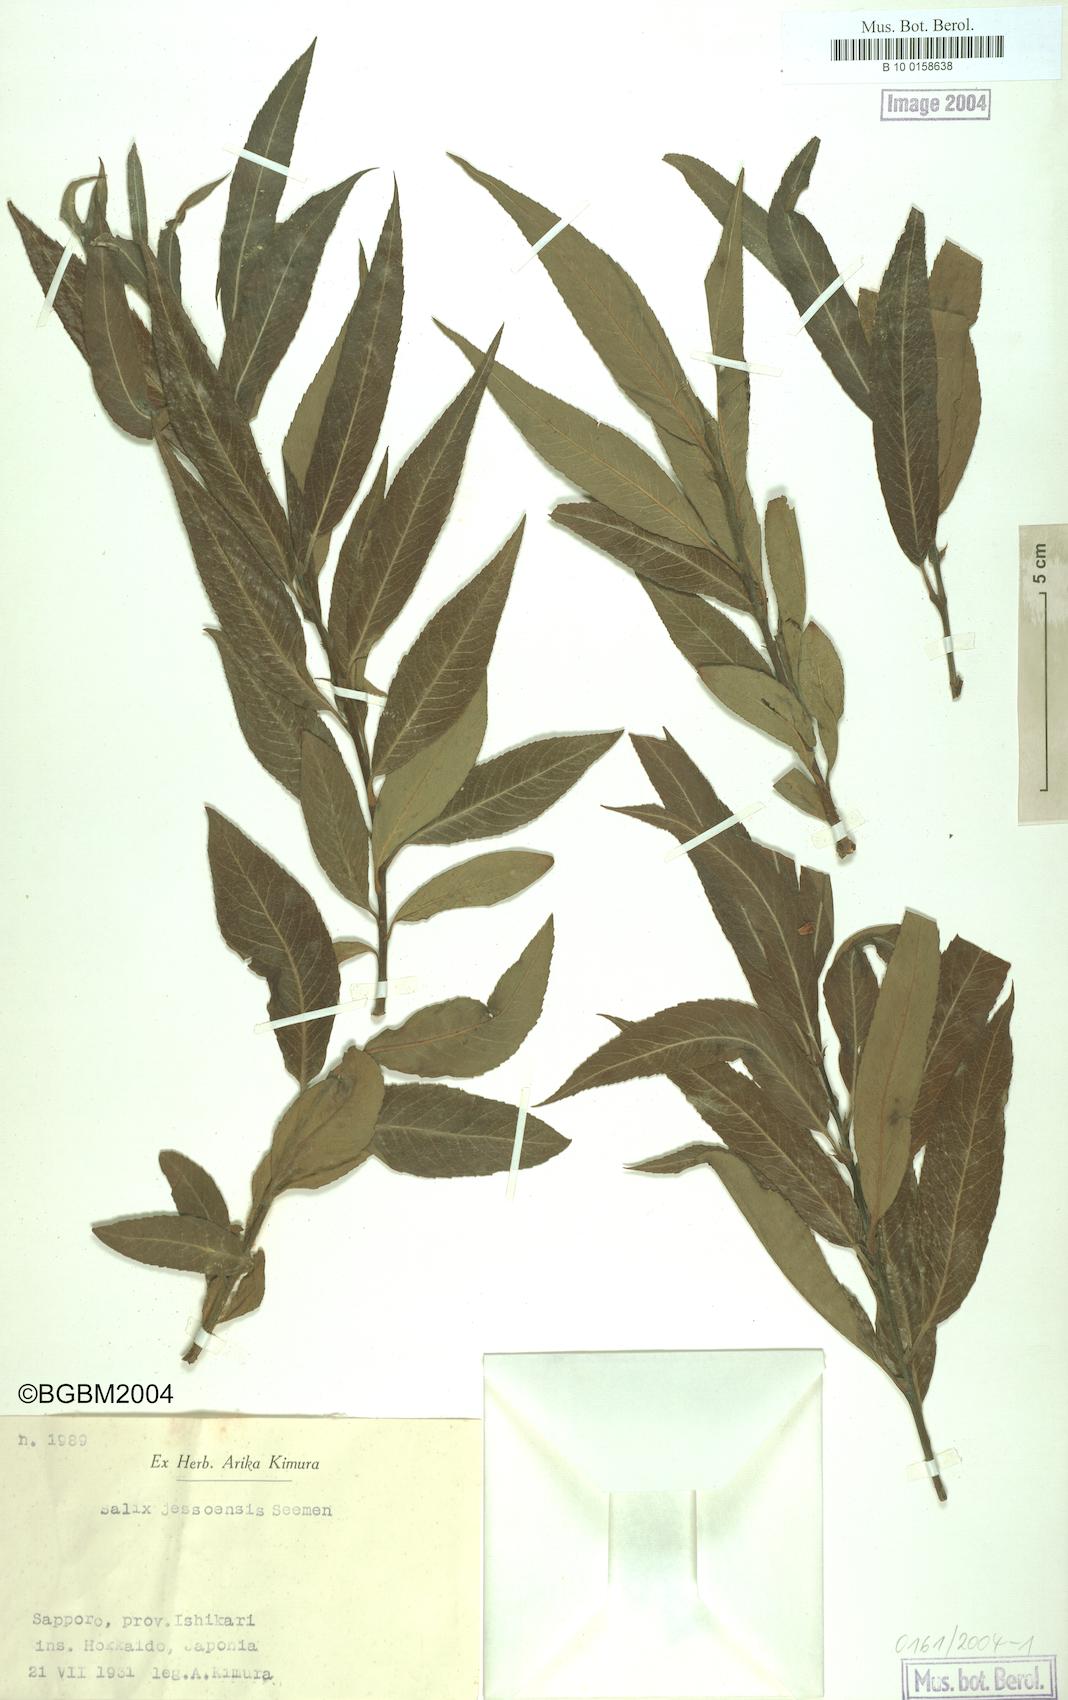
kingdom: Plantae
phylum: Tracheophyta
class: Magnoliopsida
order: Malpighiales
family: Salicaceae
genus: Salix
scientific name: Salix jessoensis
